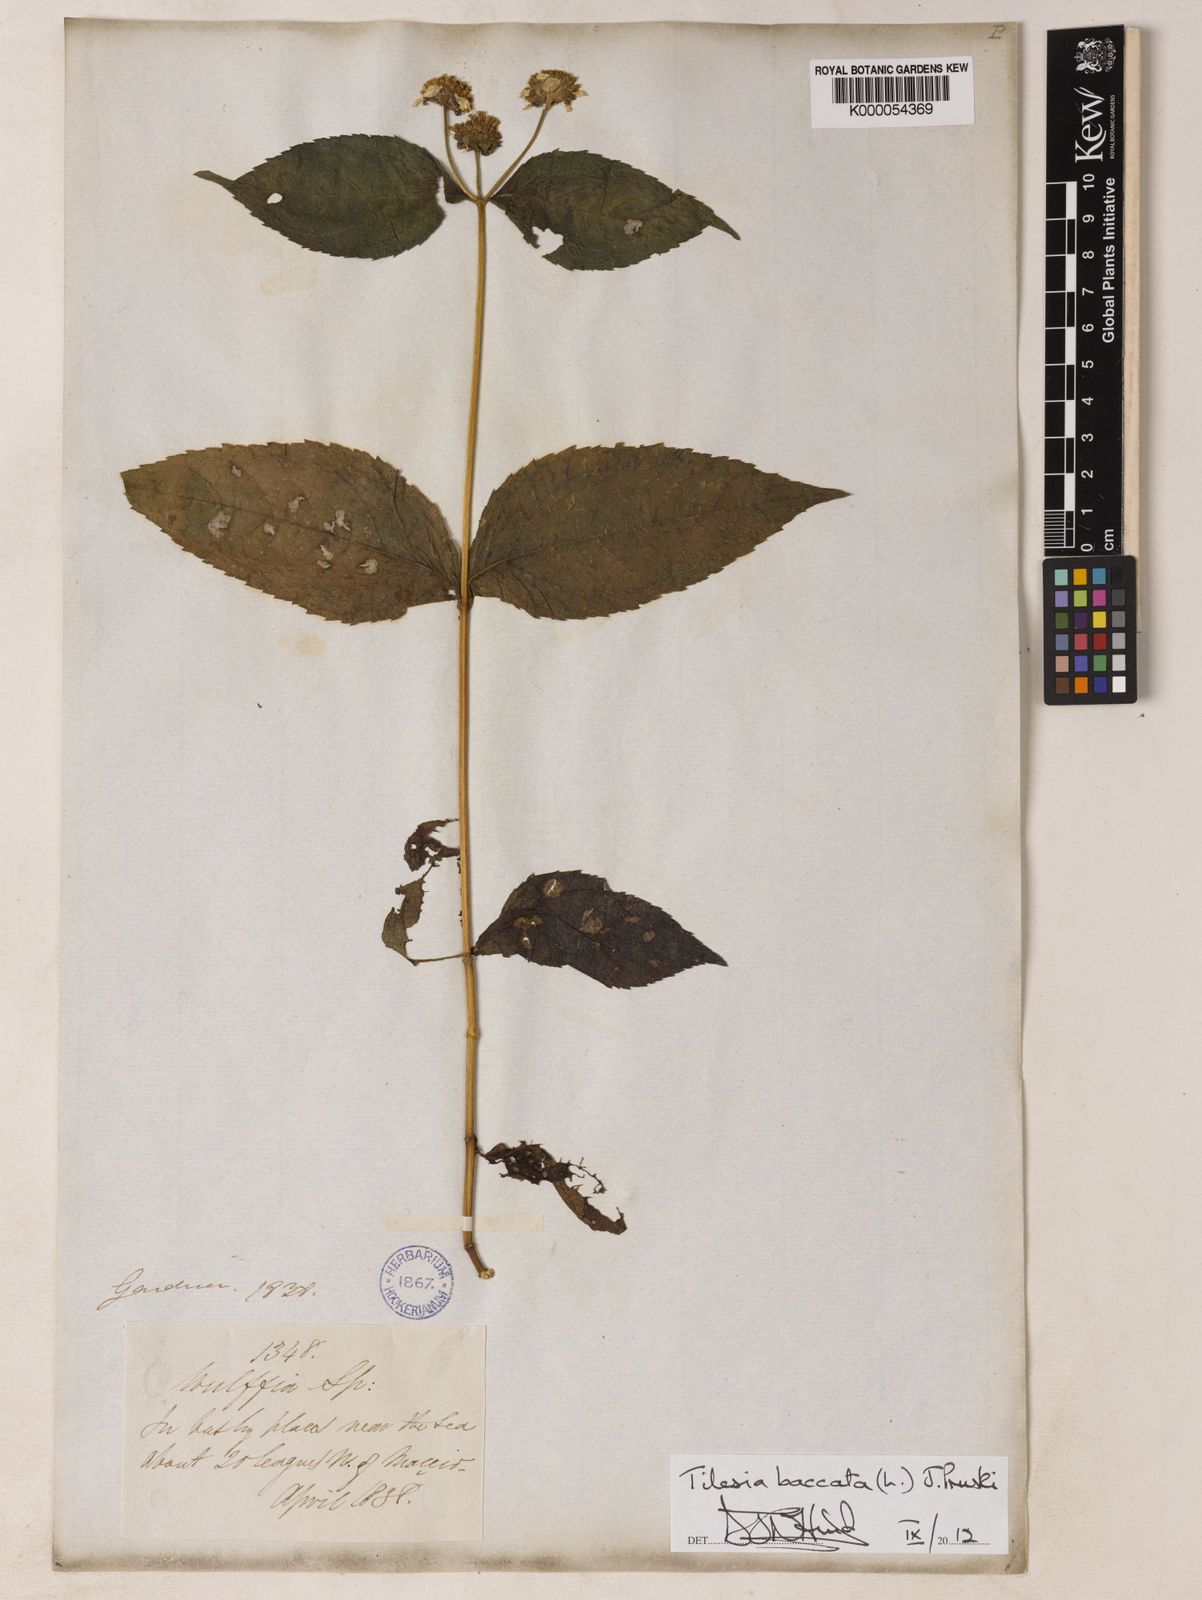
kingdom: Plantae
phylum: Tracheophyta
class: Magnoliopsida
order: Asterales
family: Asteraceae
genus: Tilesia
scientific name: Tilesia baccata
